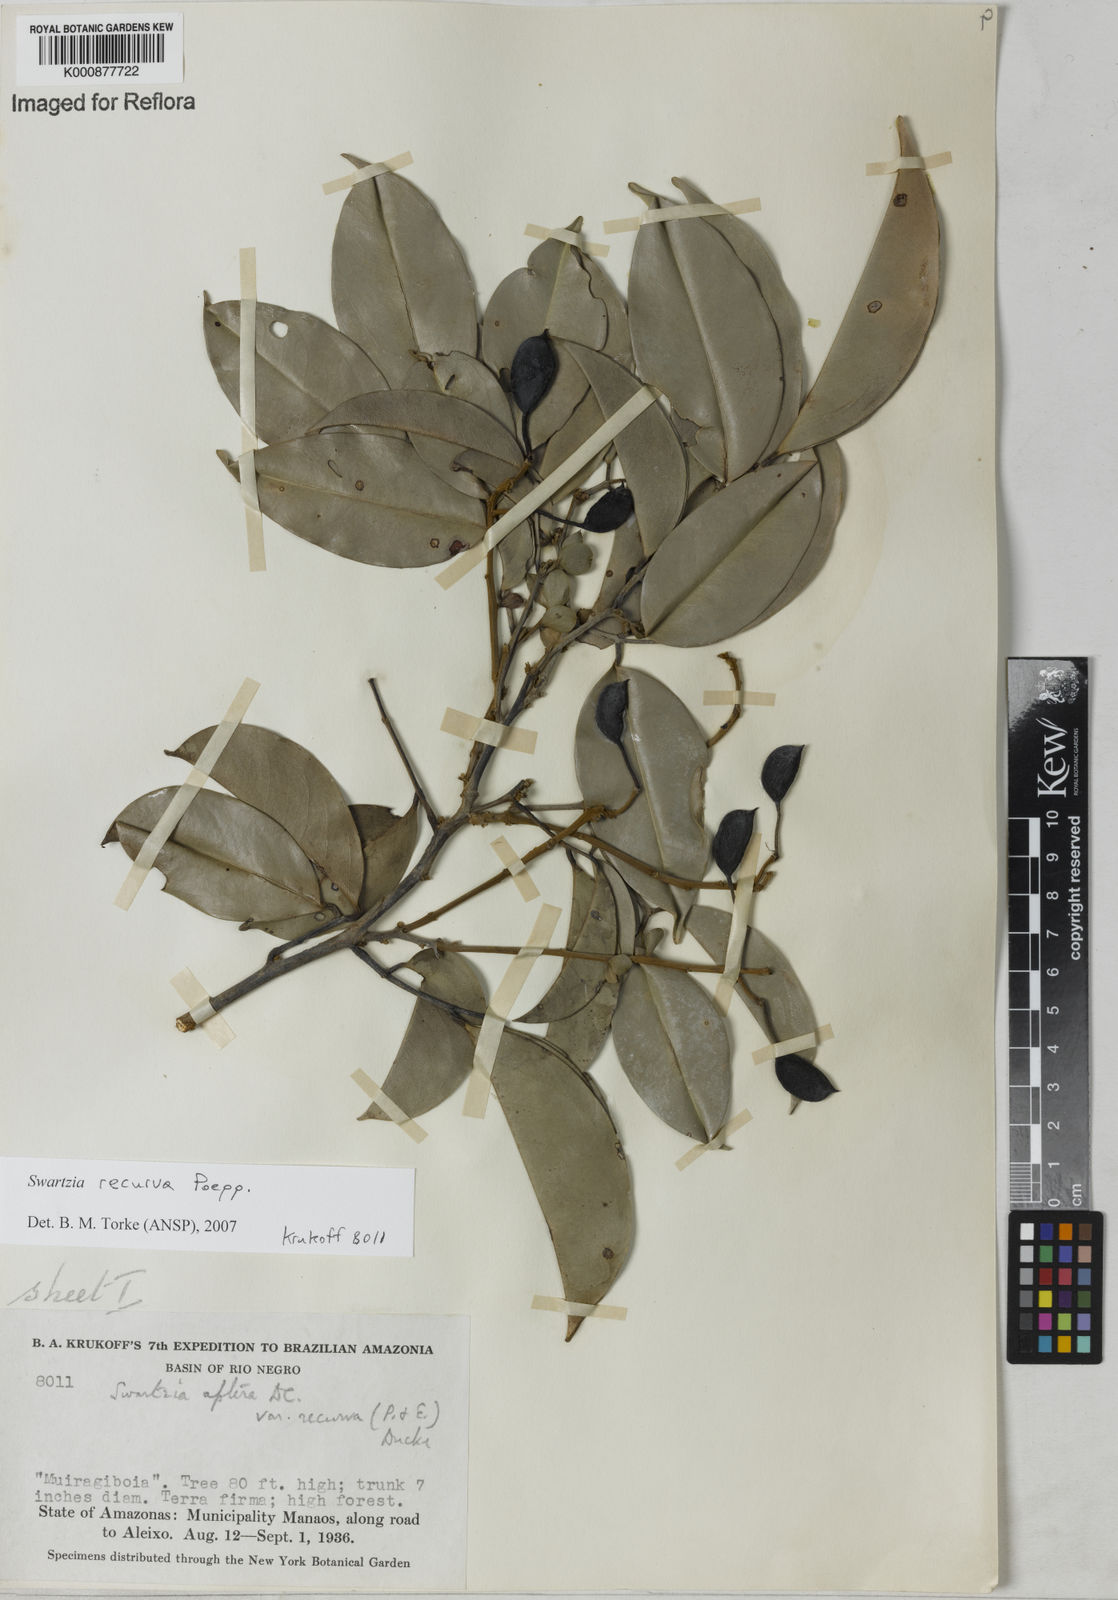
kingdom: Plantae
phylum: Tracheophyta
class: Magnoliopsida
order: Fabales
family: Fabaceae
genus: Swartzia
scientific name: Swartzia recurva
